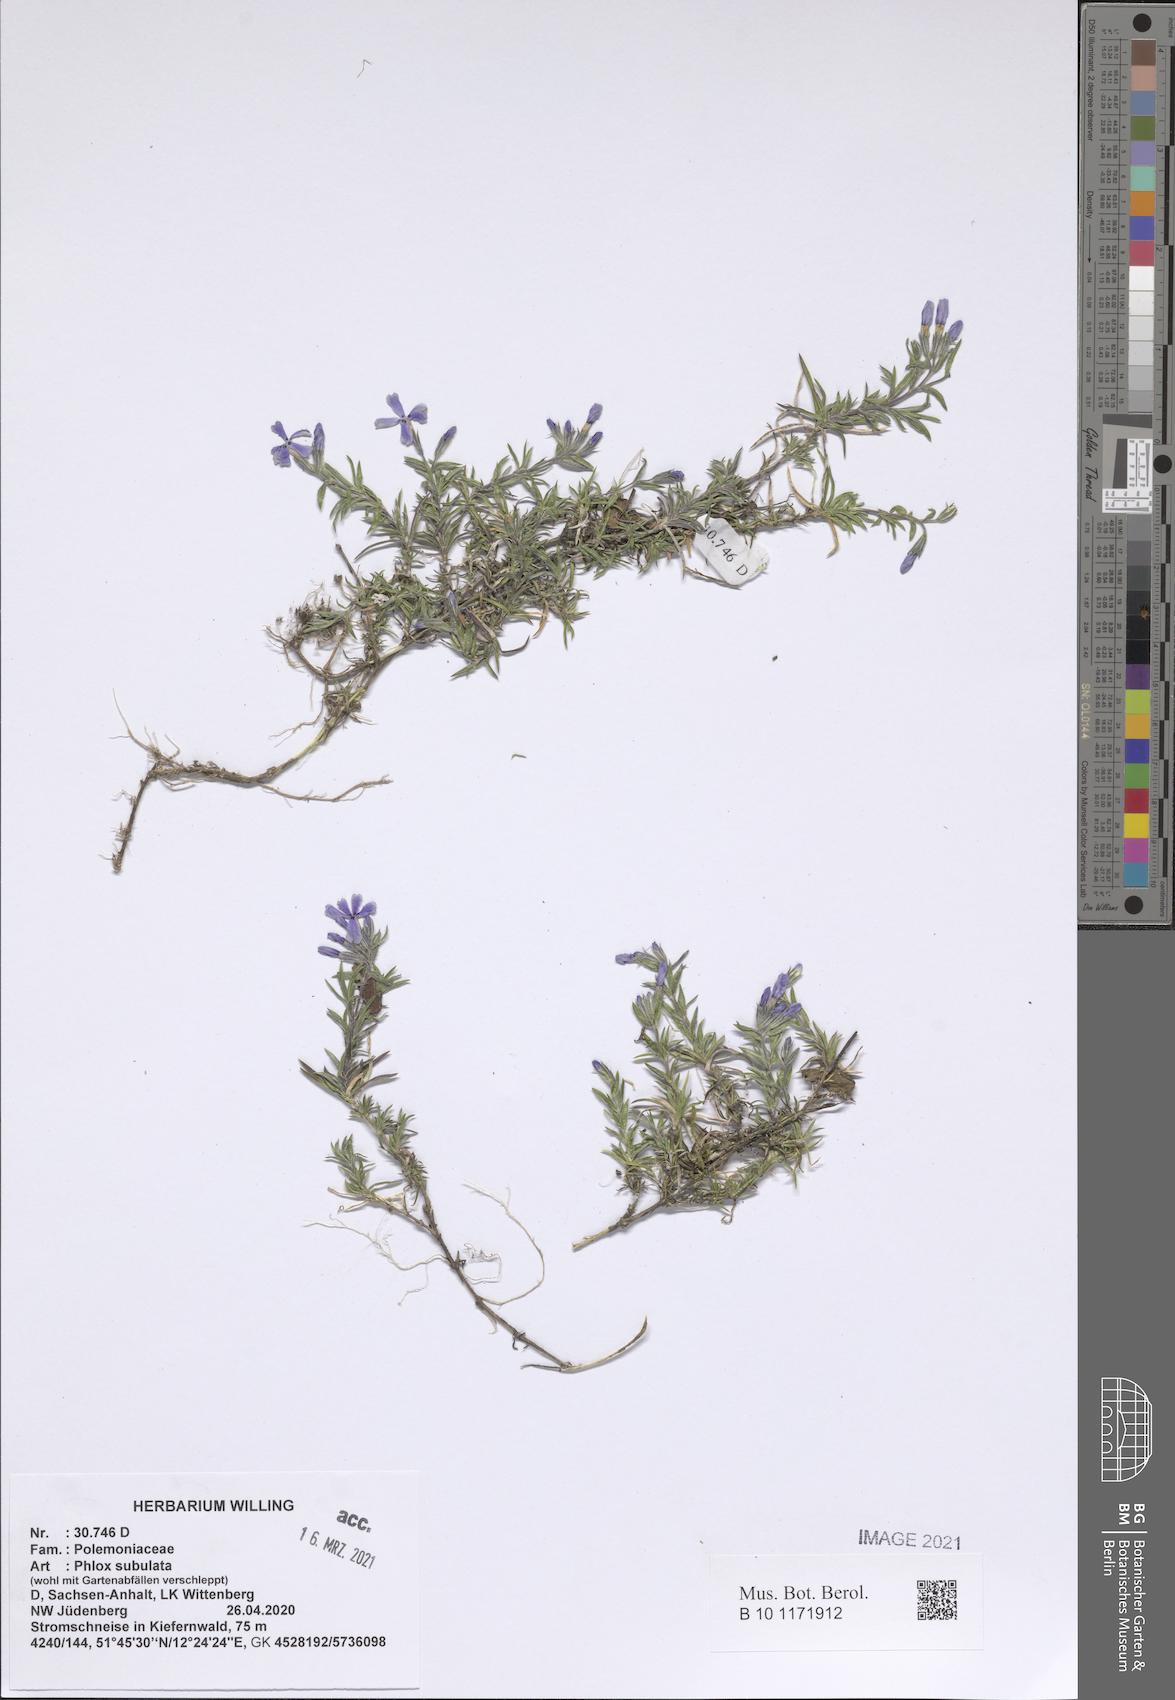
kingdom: Plantae
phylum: Tracheophyta
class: Magnoliopsida
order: Ericales
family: Polemoniaceae
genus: Phlox
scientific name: Phlox subulata
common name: Moss phlox
